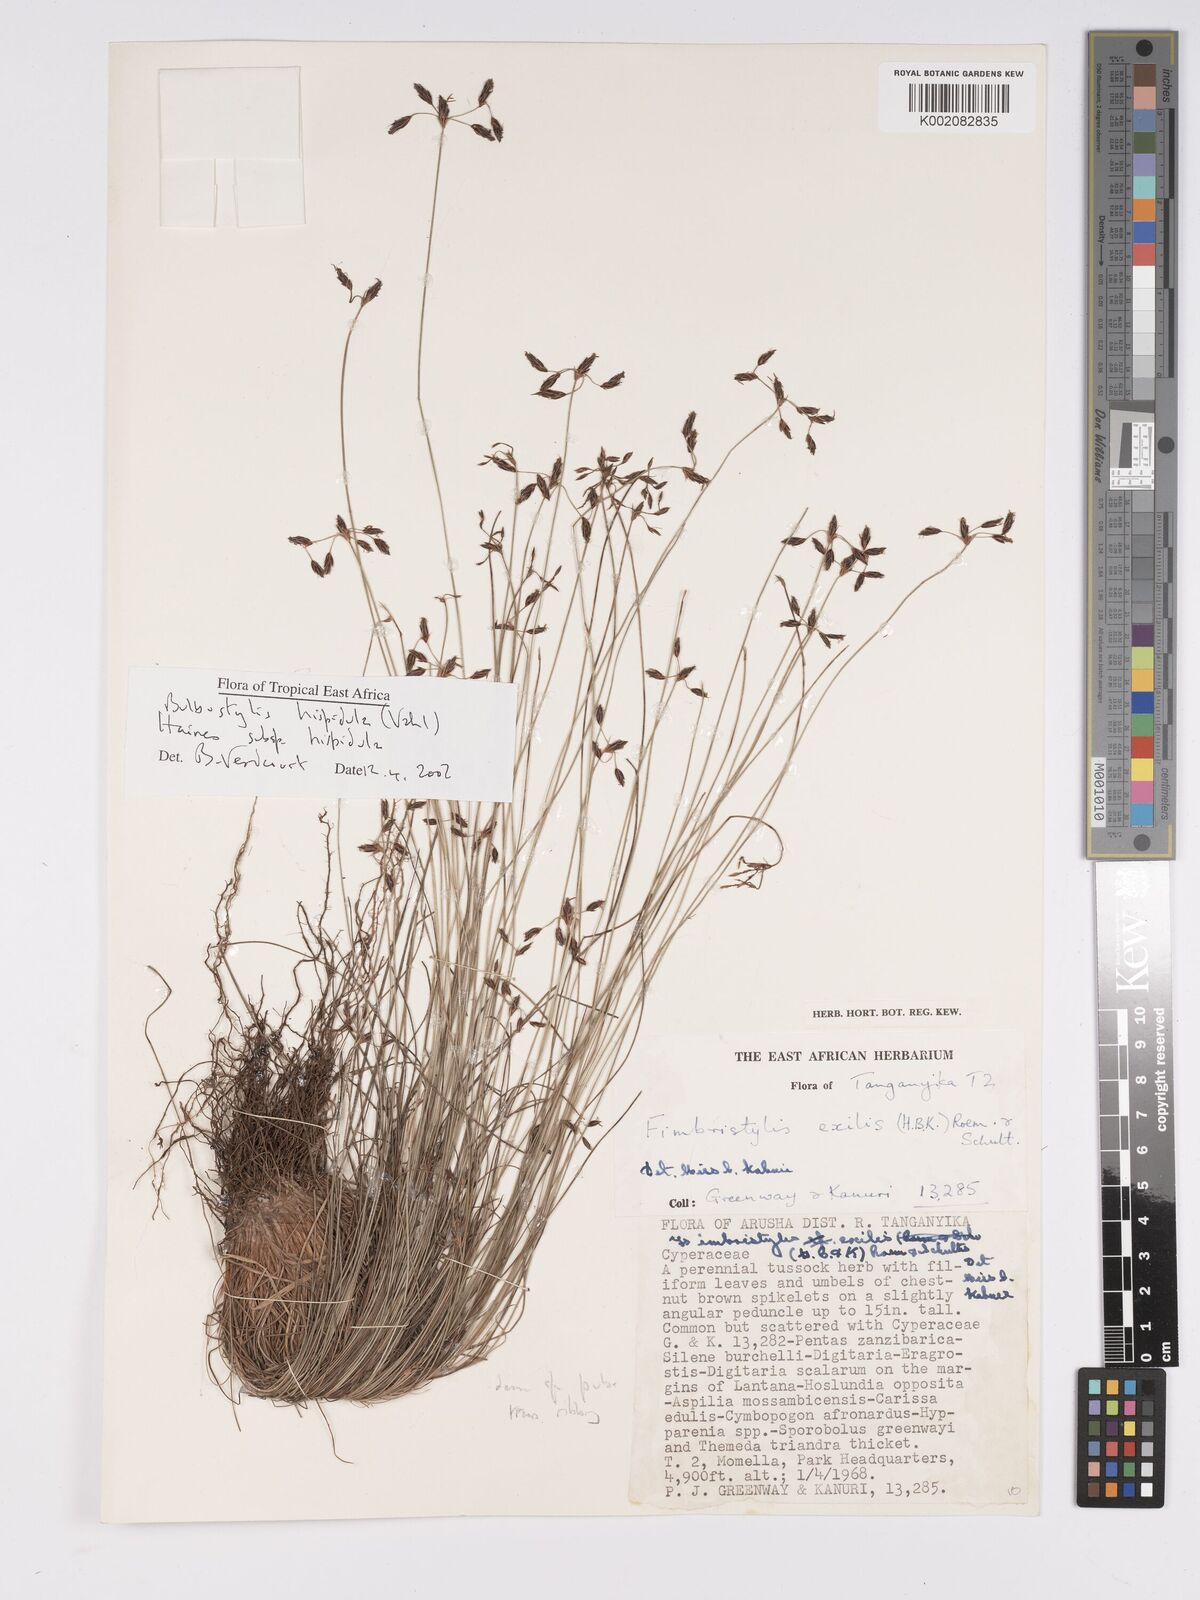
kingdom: Plantae
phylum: Tracheophyta
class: Liliopsida
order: Poales
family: Cyperaceae
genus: Bulbostylis
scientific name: Bulbostylis hispidula
